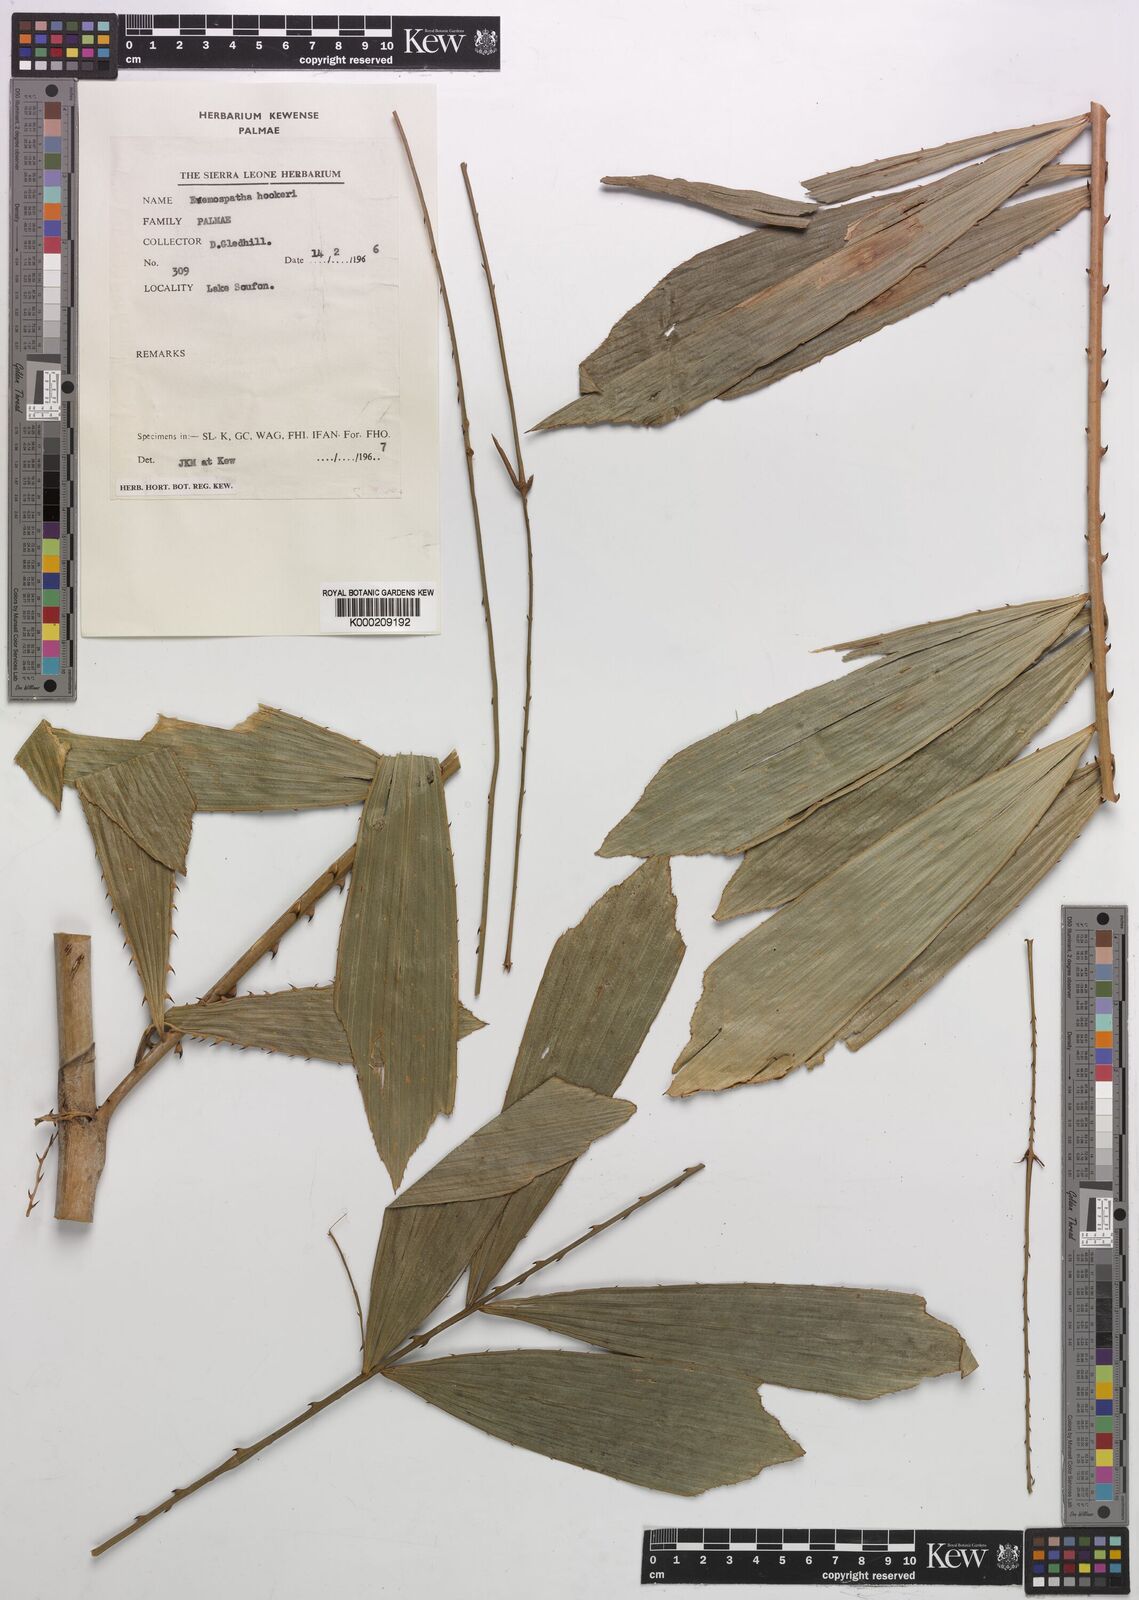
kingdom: Plantae
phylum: Tracheophyta
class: Liliopsida
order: Arecales
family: Arecaceae
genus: Eremospatha
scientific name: Eremospatha hookeri
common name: Rattan
